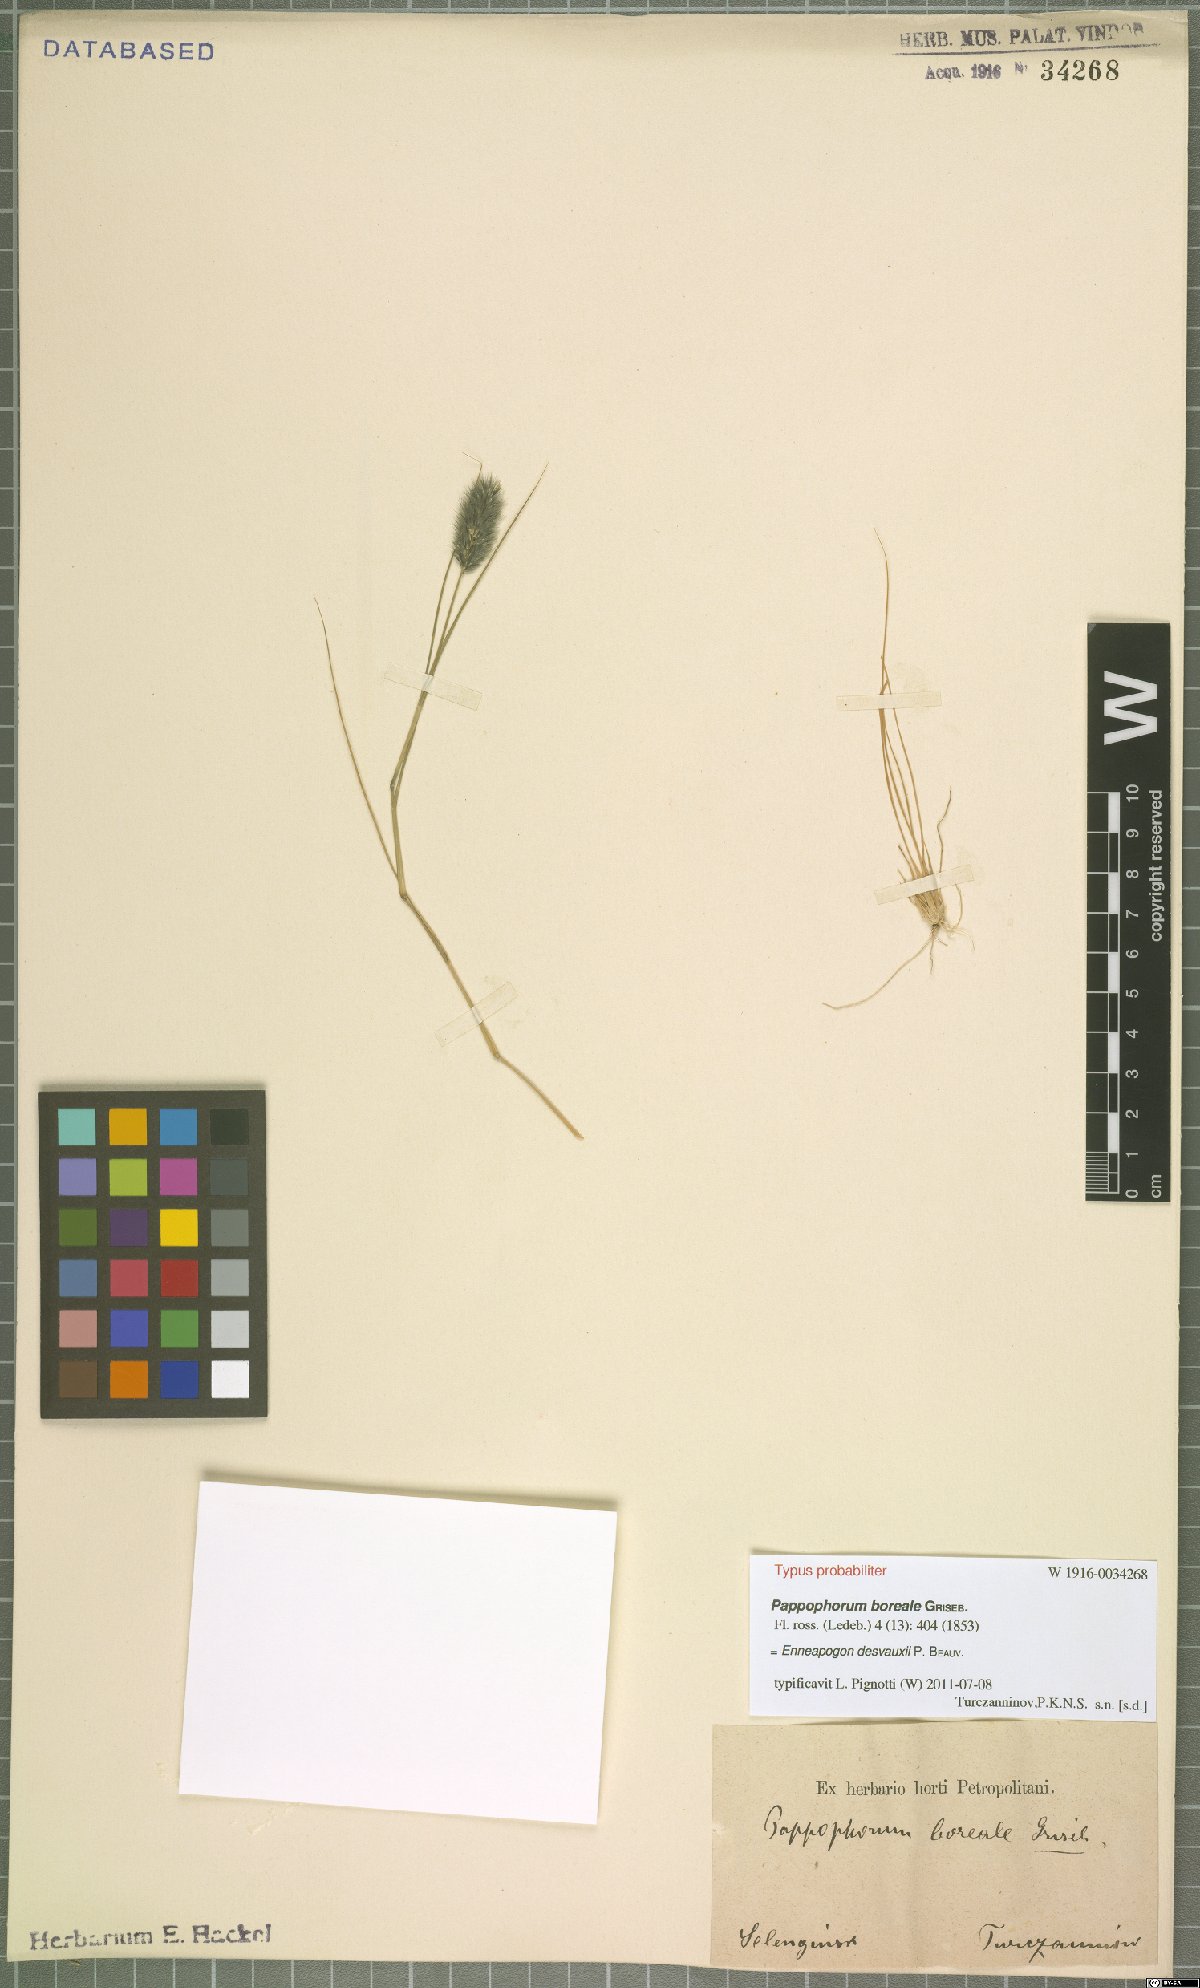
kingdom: Plantae
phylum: Tracheophyta
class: Liliopsida
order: Poales
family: Poaceae
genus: Enneapogon
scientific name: Enneapogon desvauxii
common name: Feather pappus grass
